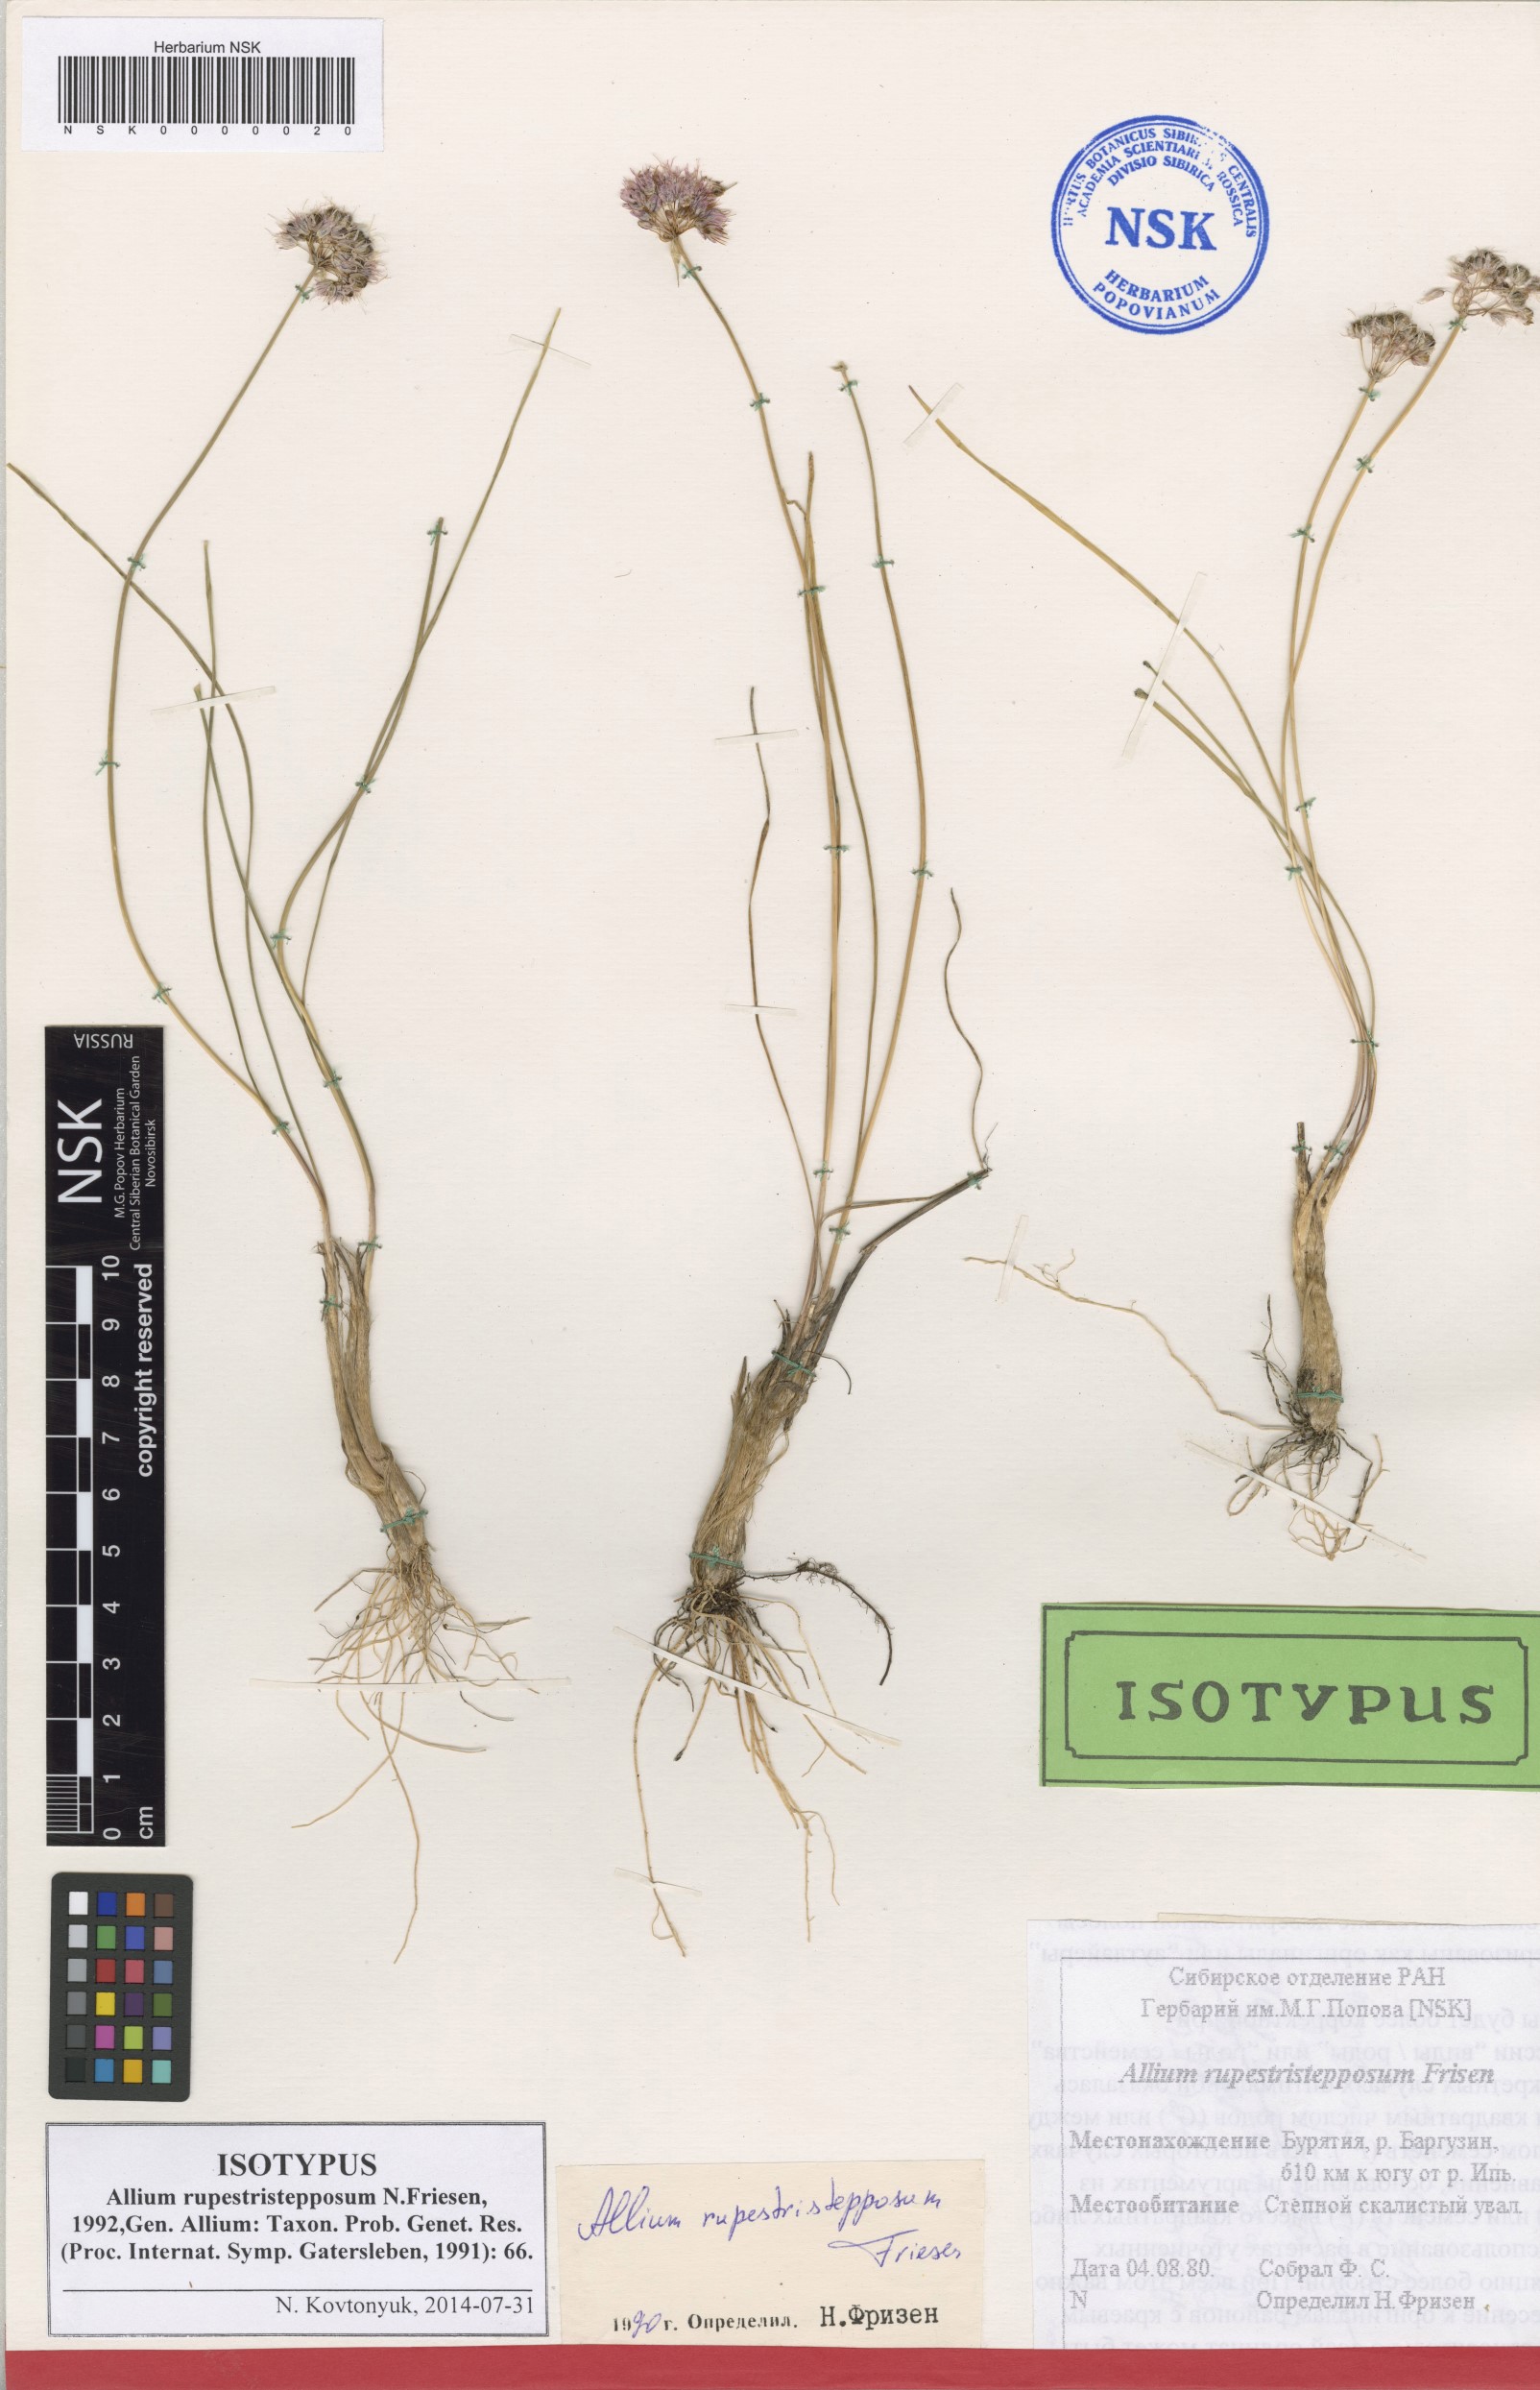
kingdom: Plantae
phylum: Tracheophyta
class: Liliopsida
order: Asparagales
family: Amaryllidaceae
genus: Allium
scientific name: Allium rupestristepposum
